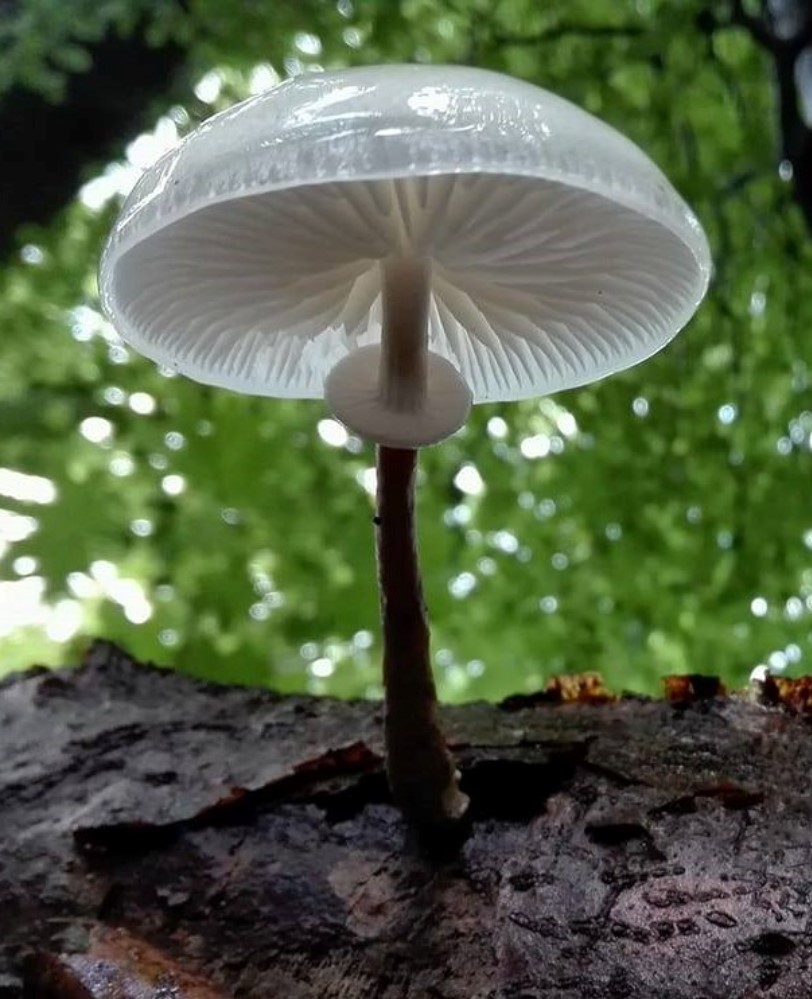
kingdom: Fungi
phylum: Basidiomycota
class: Agaricomycetes
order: Agaricales
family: Physalacriaceae
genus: Mucidula
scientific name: Mucidula mucida
